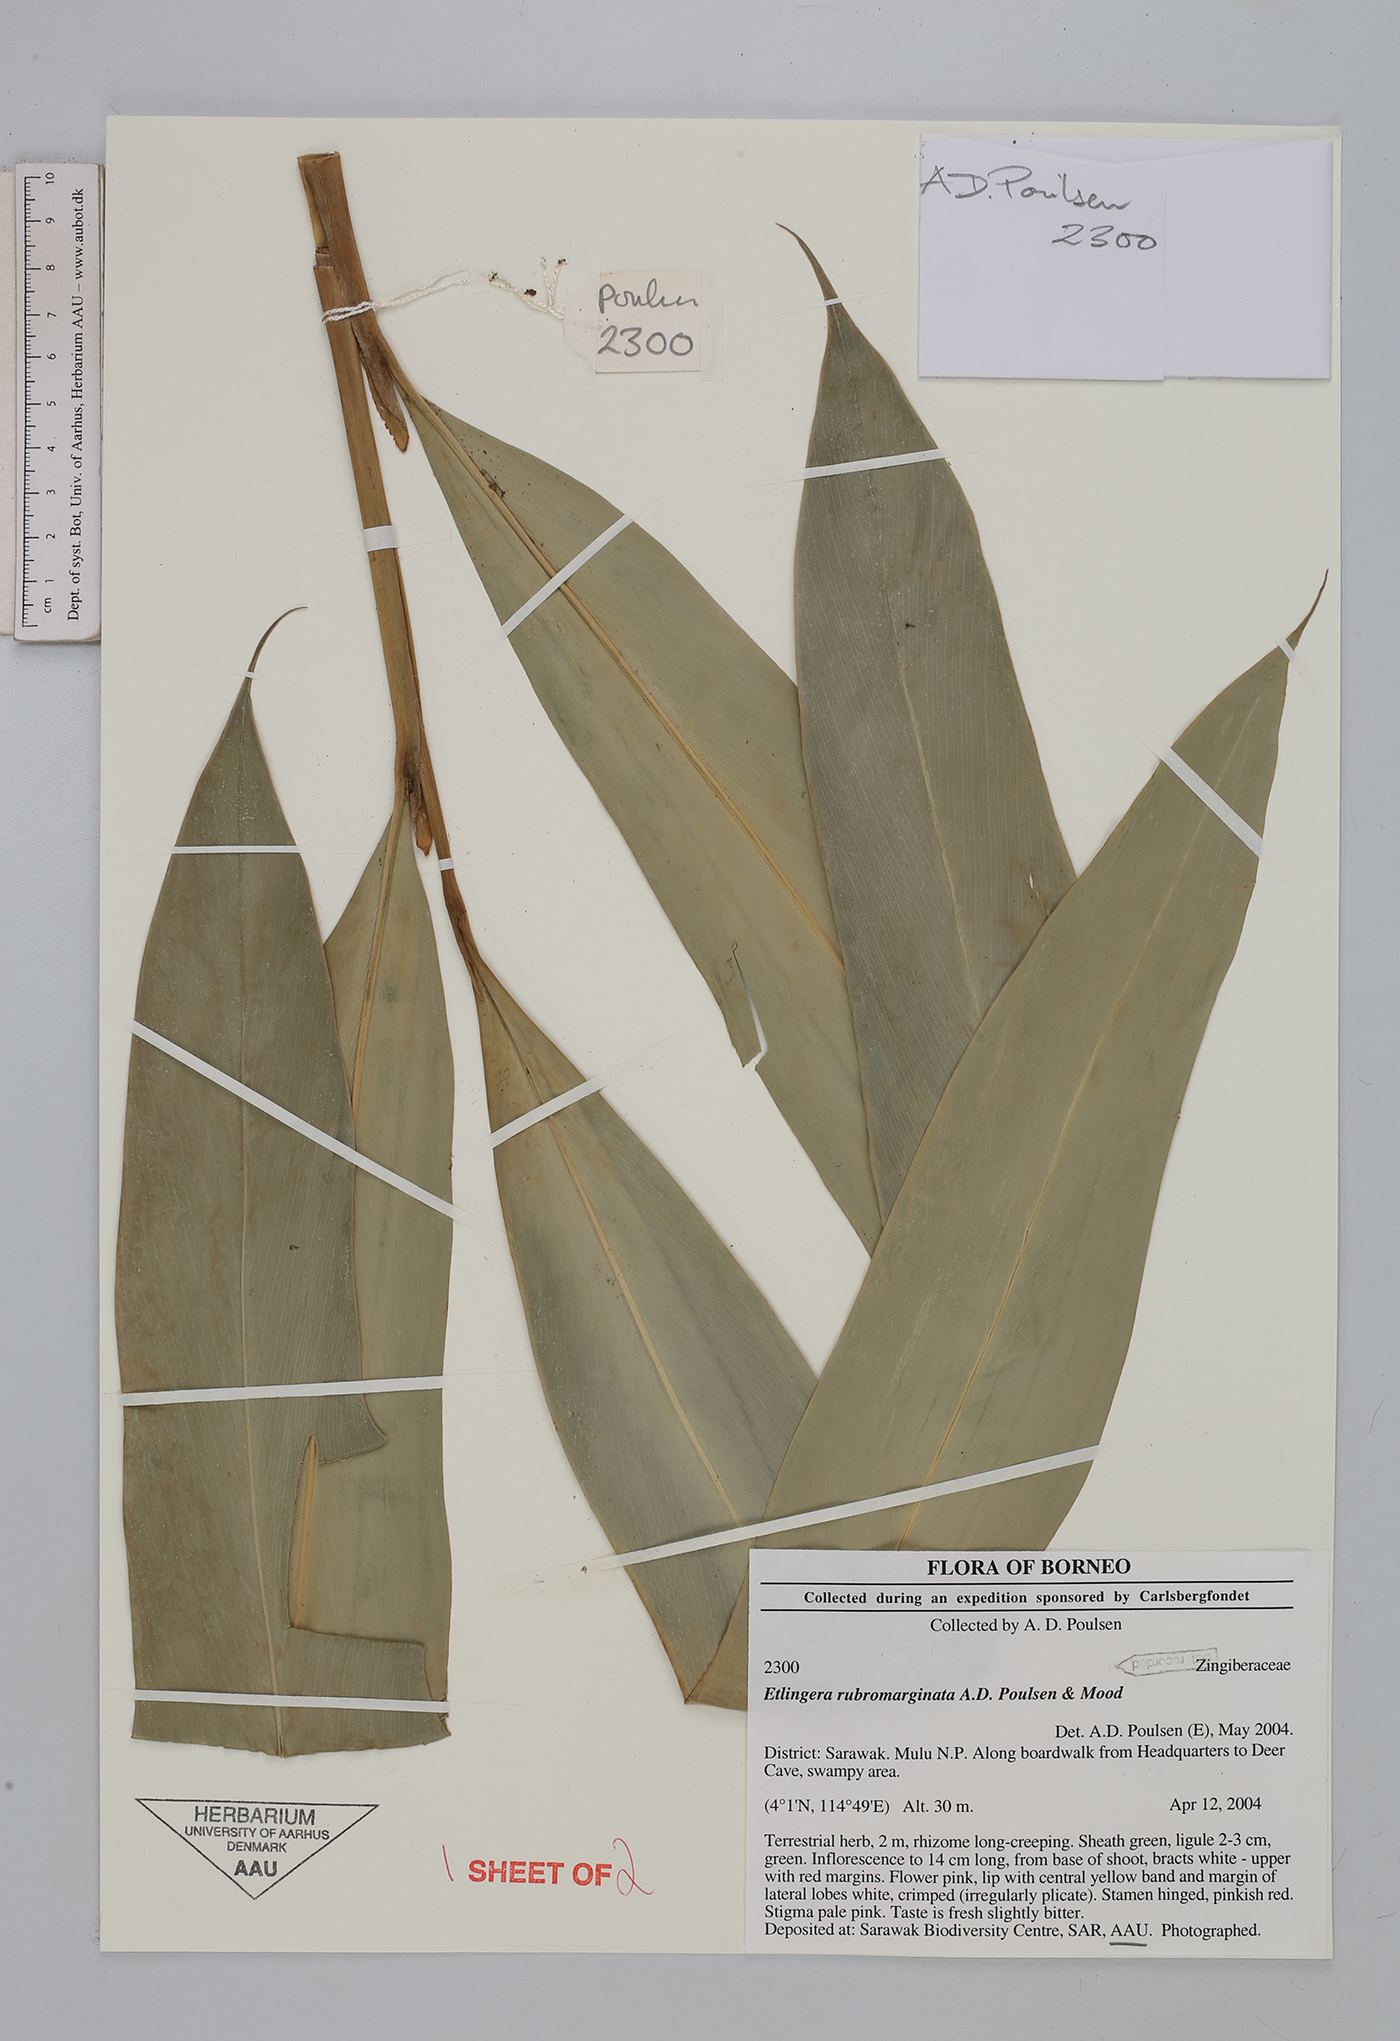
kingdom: Plantae
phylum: Tracheophyta
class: Liliopsida
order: Zingiberales
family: Zingiberaceae
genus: Etlingera
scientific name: Etlingera rubromarginata
